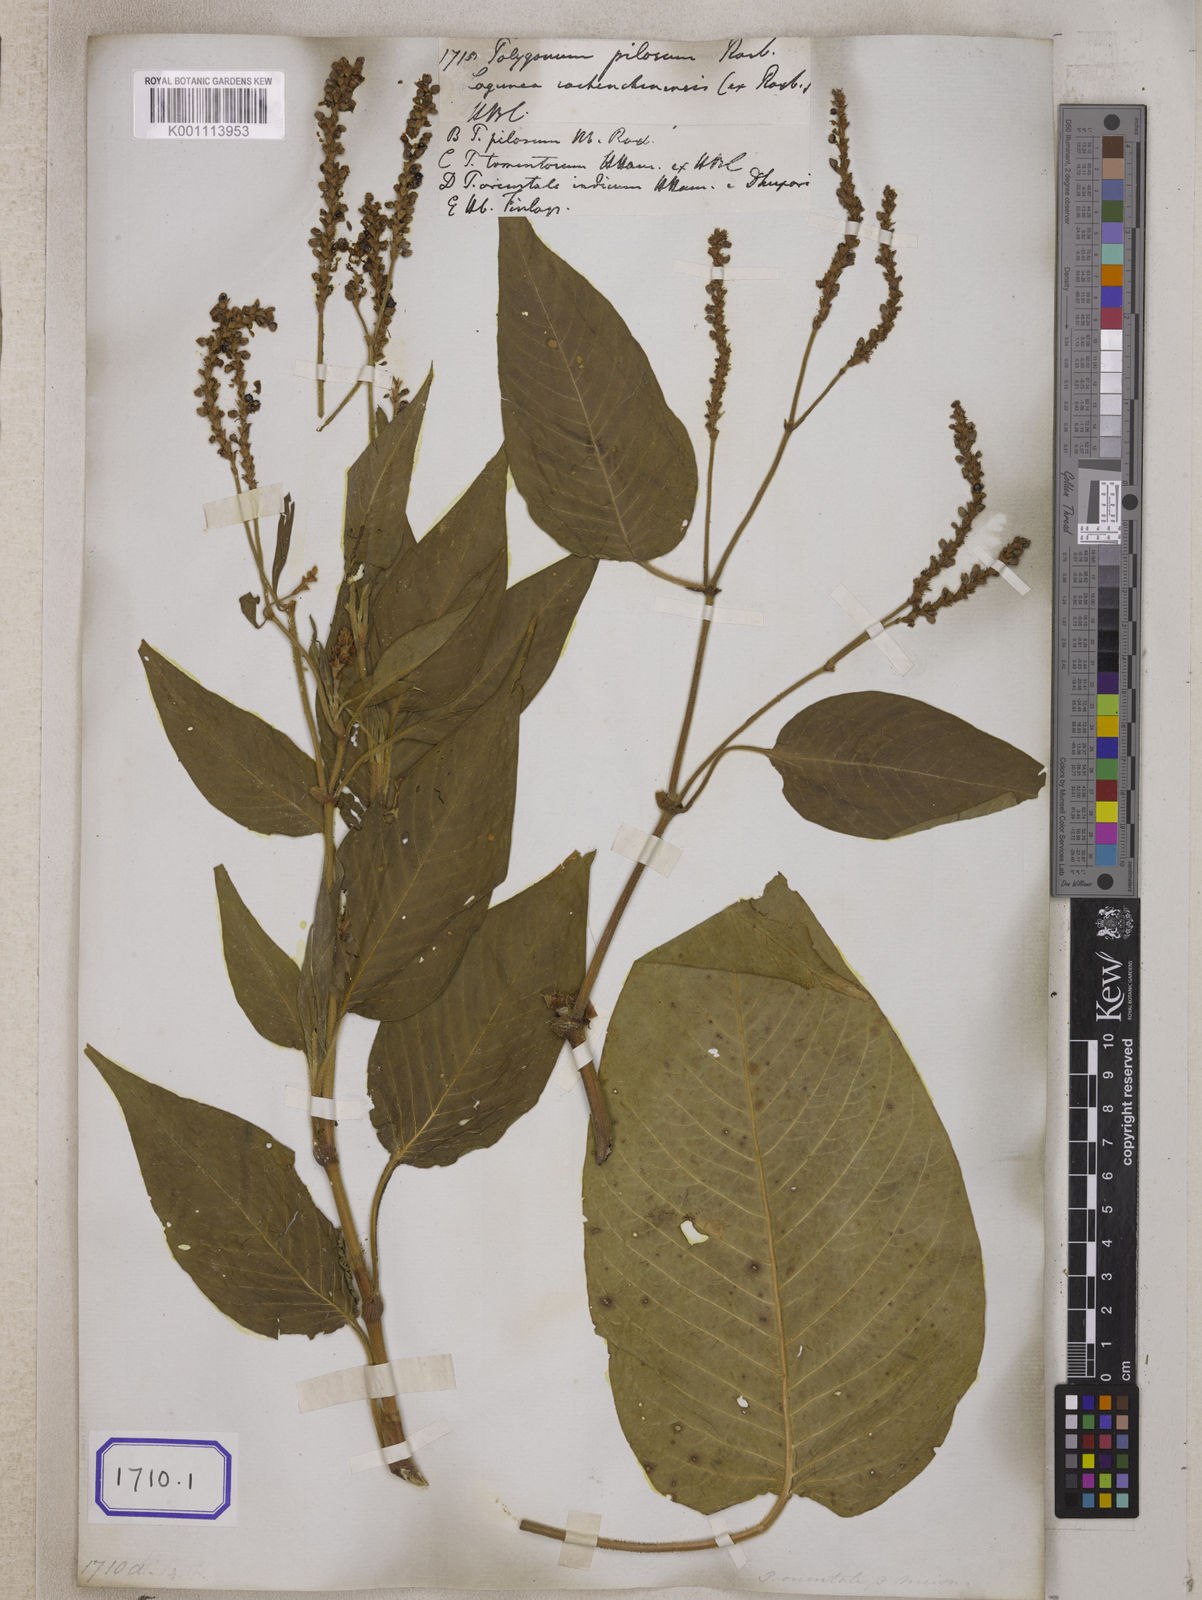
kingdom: Plantae
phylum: Tracheophyta
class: Magnoliopsida
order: Caryophyllales
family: Polygonaceae
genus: Polygonum
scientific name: Polygonum
